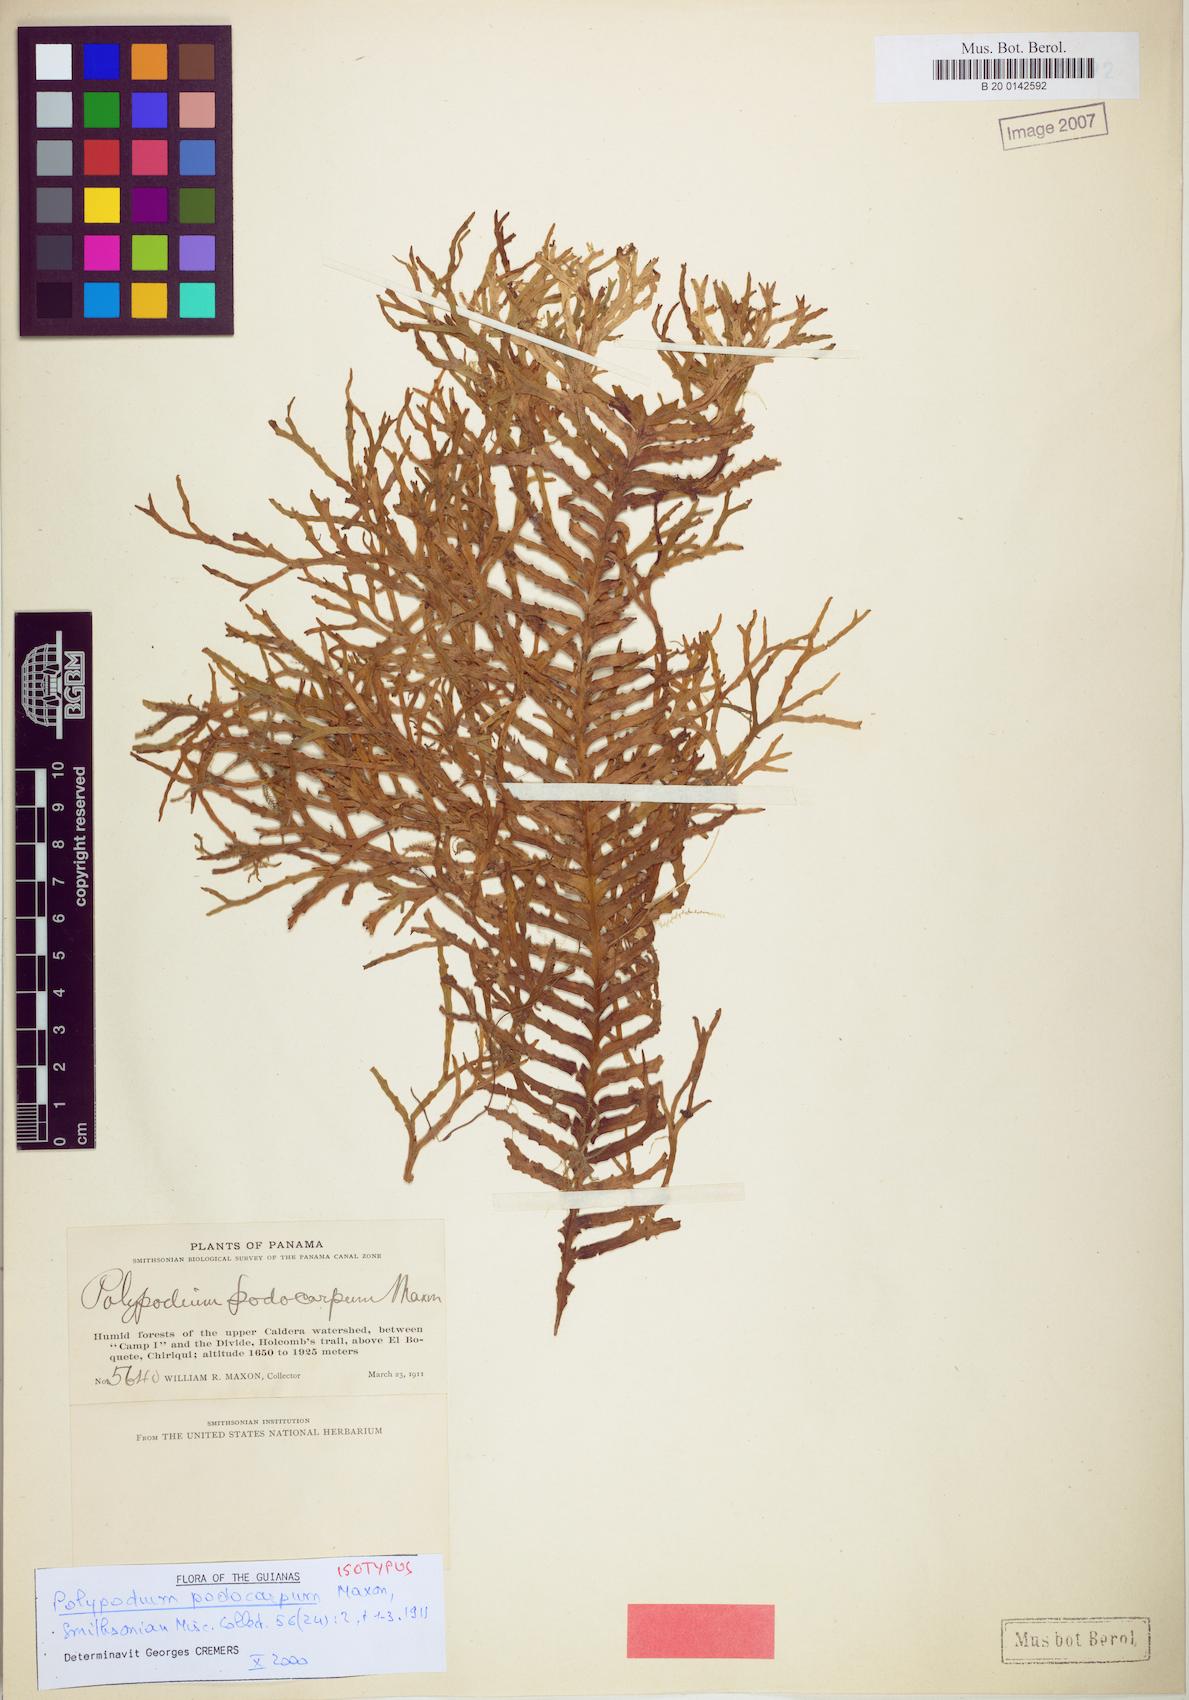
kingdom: Plantae
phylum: Tracheophyta
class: Polypodiopsida
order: Polypodiales
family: Polypodiaceae
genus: Ceradenia
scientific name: Ceradenia podocarpa
